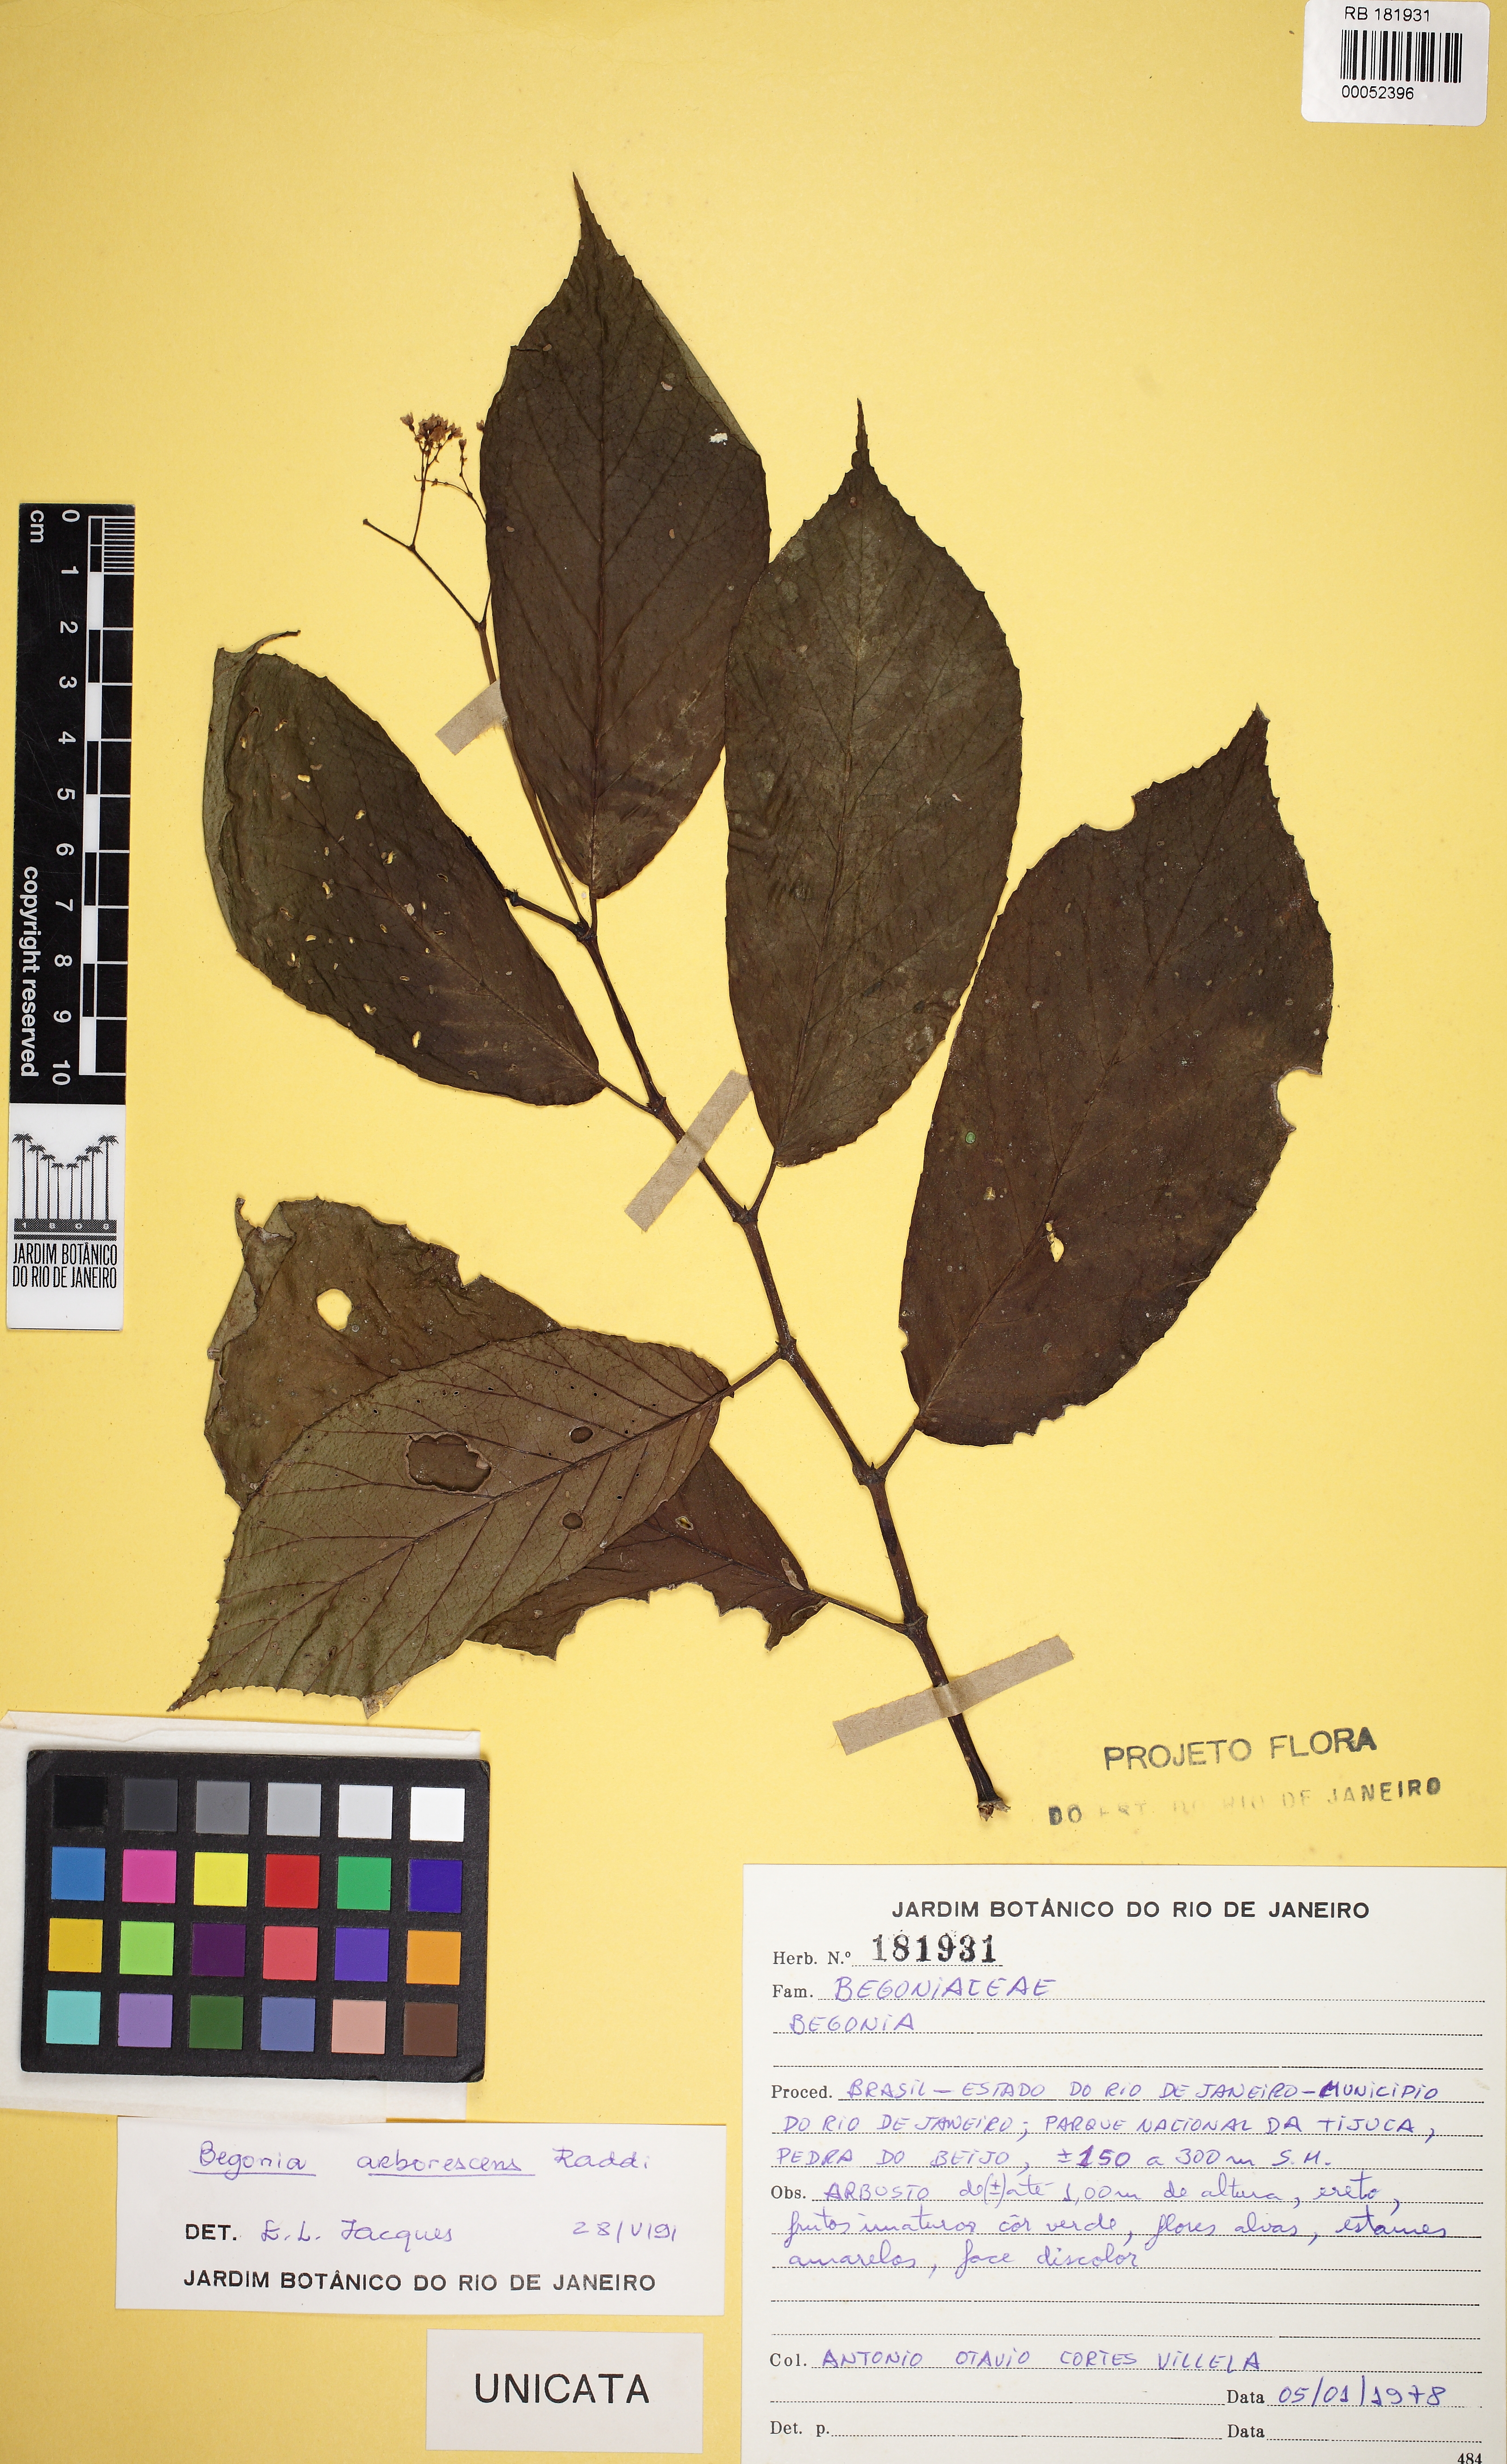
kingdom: Plantae
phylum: Tracheophyta
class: Magnoliopsida
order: Cucurbitales
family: Begoniaceae
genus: Begonia
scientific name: Begonia arborescens
